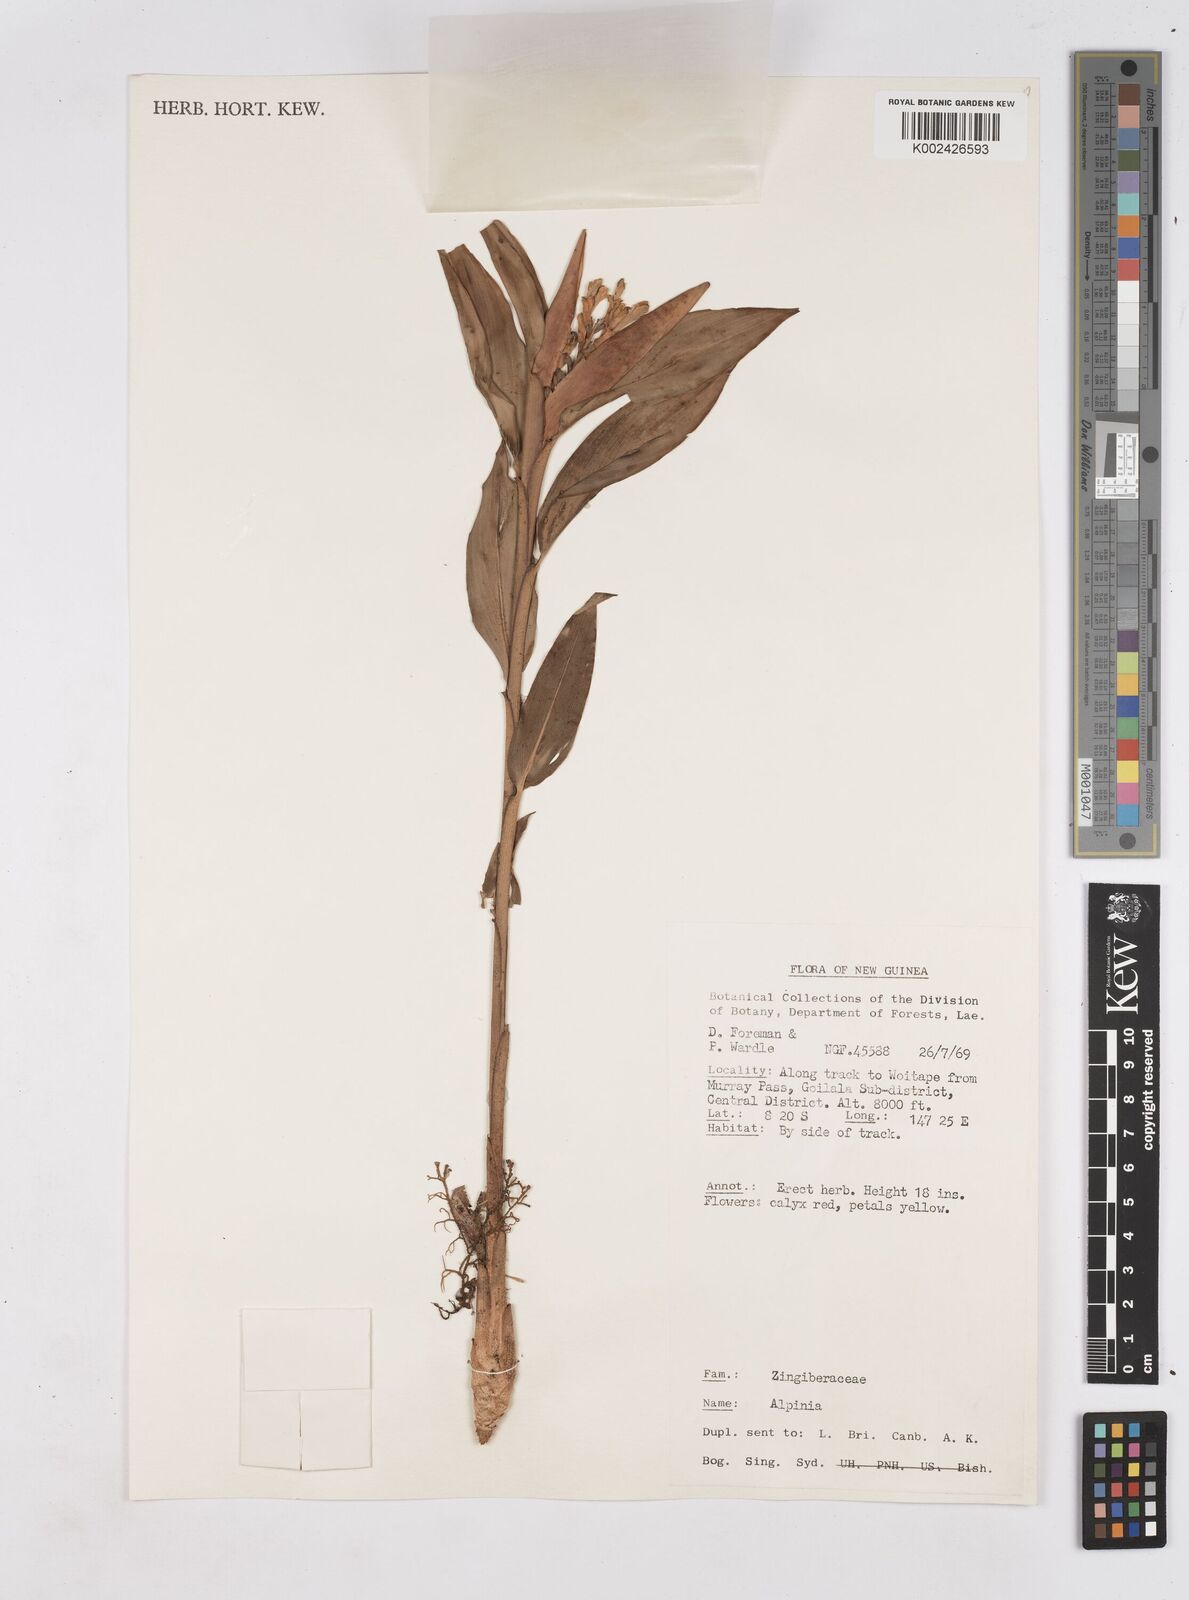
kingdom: Plantae
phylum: Tracheophyta
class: Liliopsida
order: Zingiberales
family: Zingiberaceae
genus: Riedelia
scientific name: Riedelia
